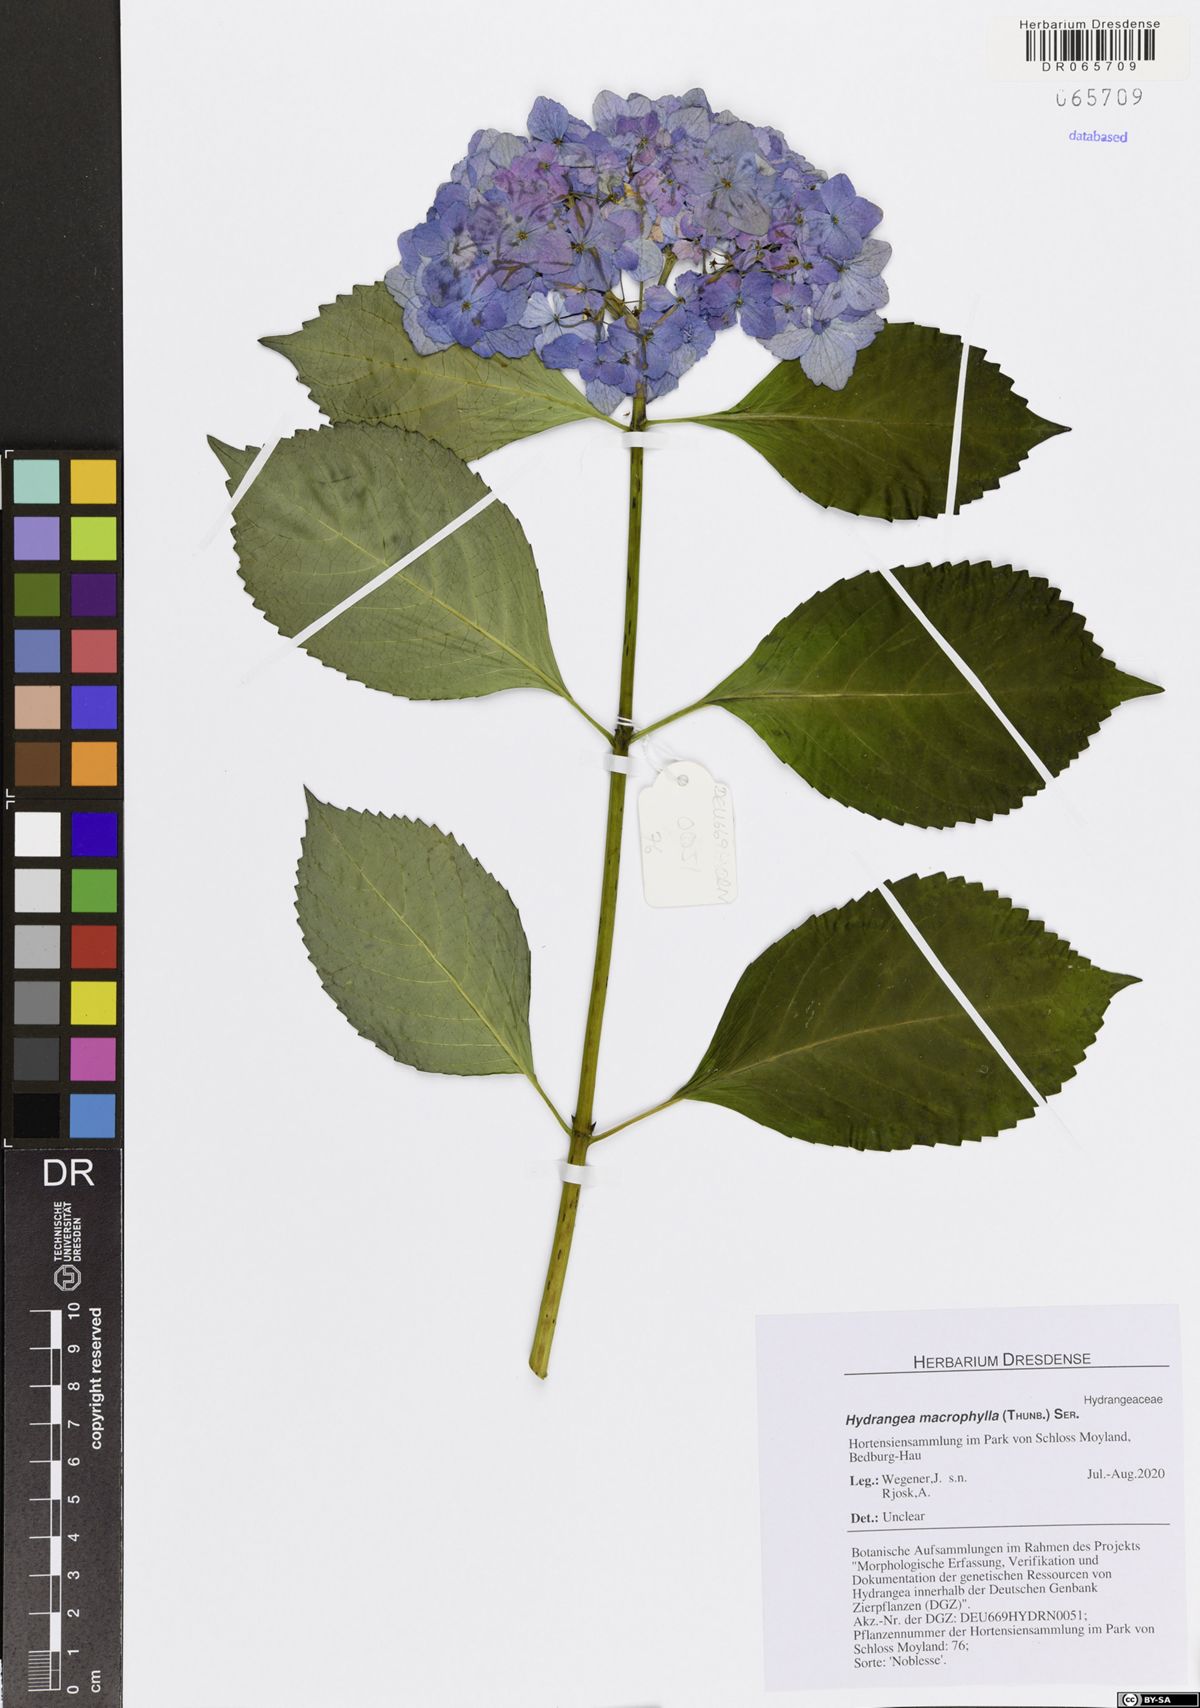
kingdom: Plantae
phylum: Tracheophyta
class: Magnoliopsida
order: Cornales
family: Hydrangeaceae
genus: Hydrangea
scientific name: Hydrangea macrophylla
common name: Hydrangea
